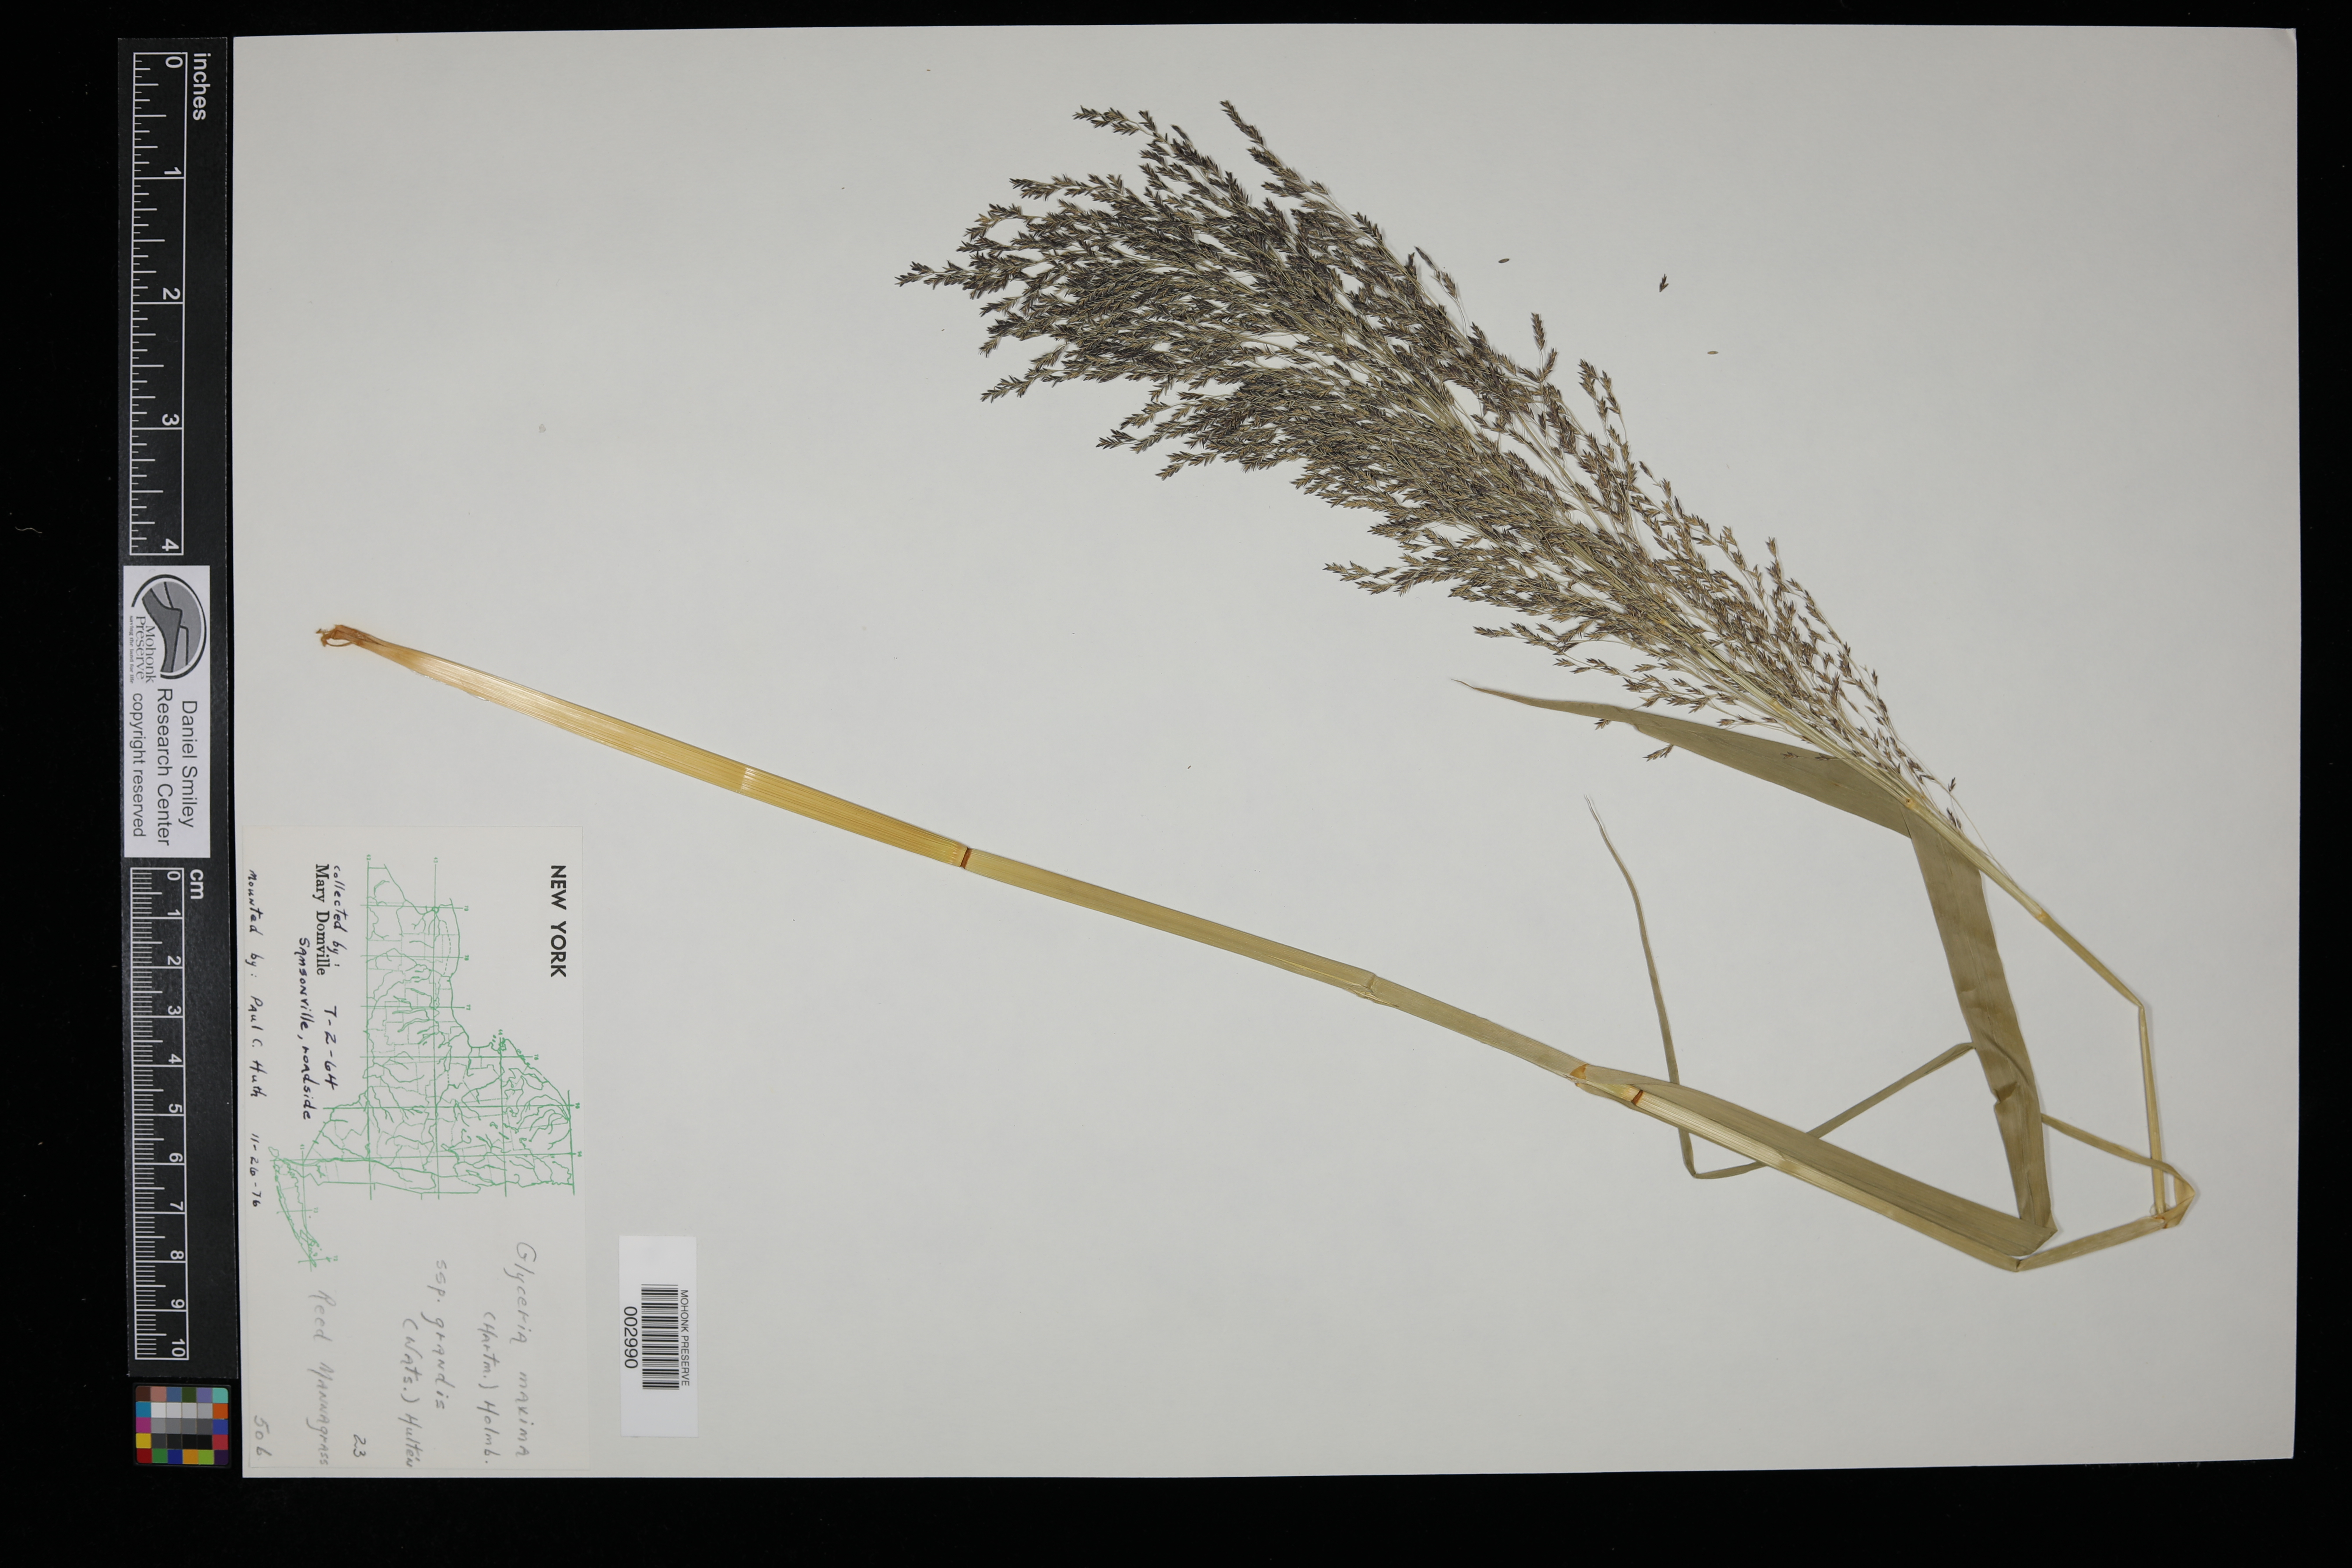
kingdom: Plantae
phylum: Tracheophyta
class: Liliopsida
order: Poales
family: Poaceae
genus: Glyceria
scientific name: Glyceria maxima
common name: Reed mannagrass
